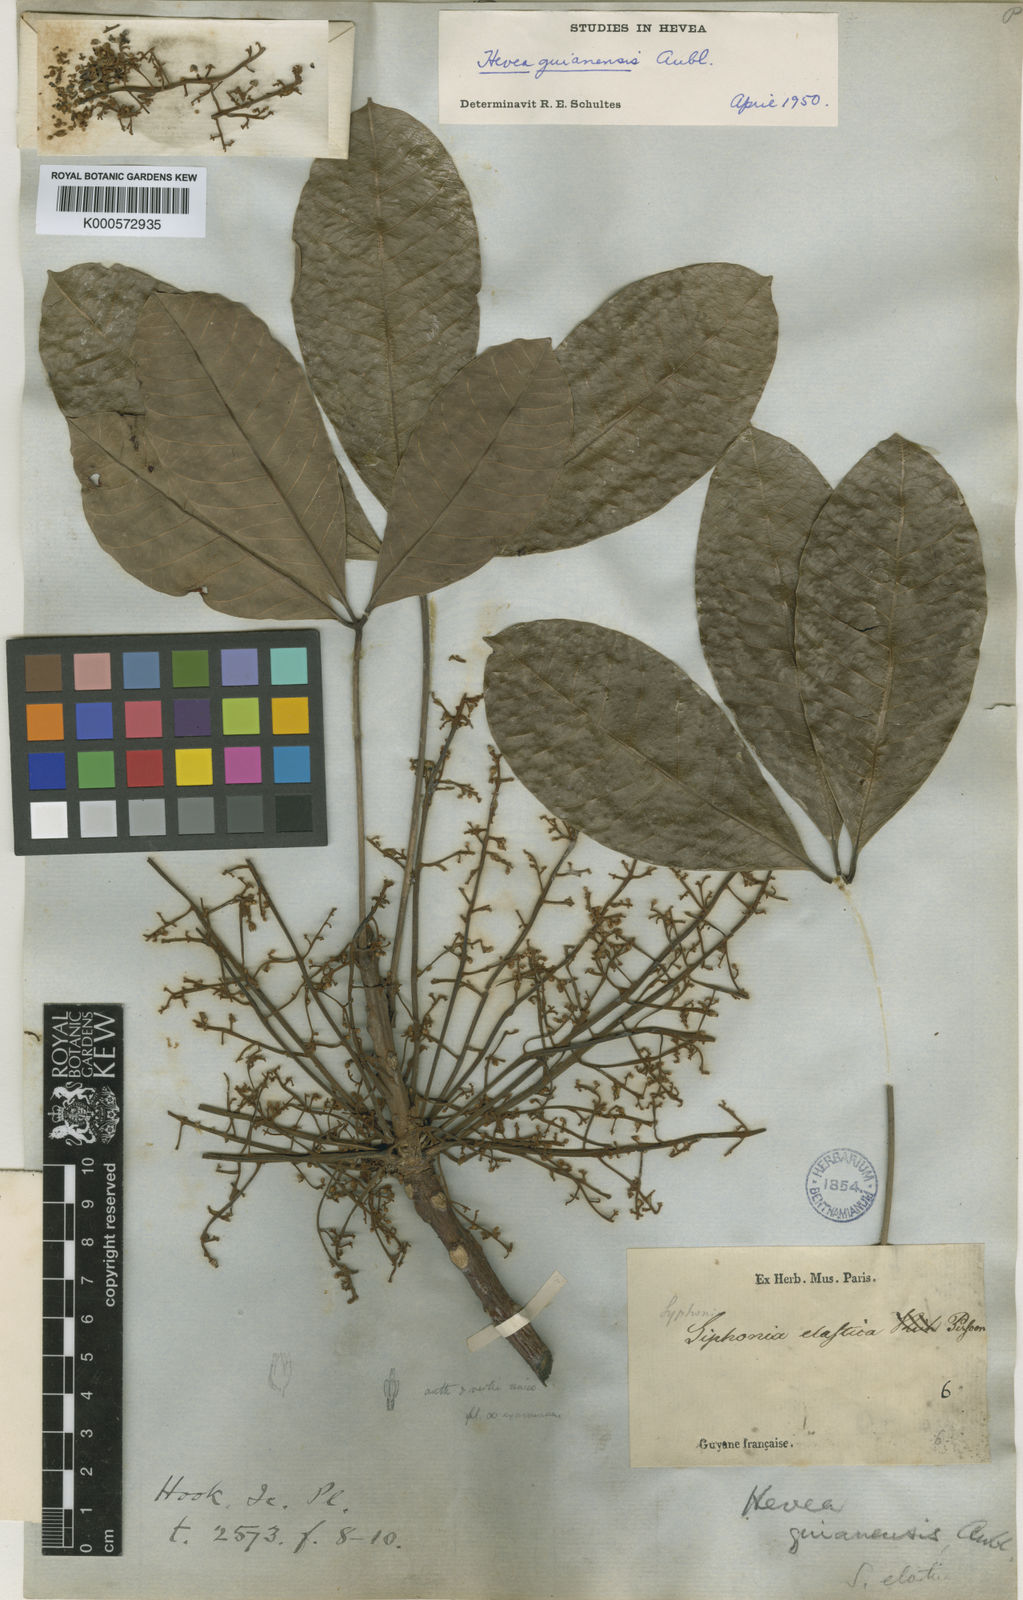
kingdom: Plantae
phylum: Tracheophyta
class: Magnoliopsida
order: Malpighiales
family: Euphorbiaceae
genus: Hevea
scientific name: Hevea guianensis
